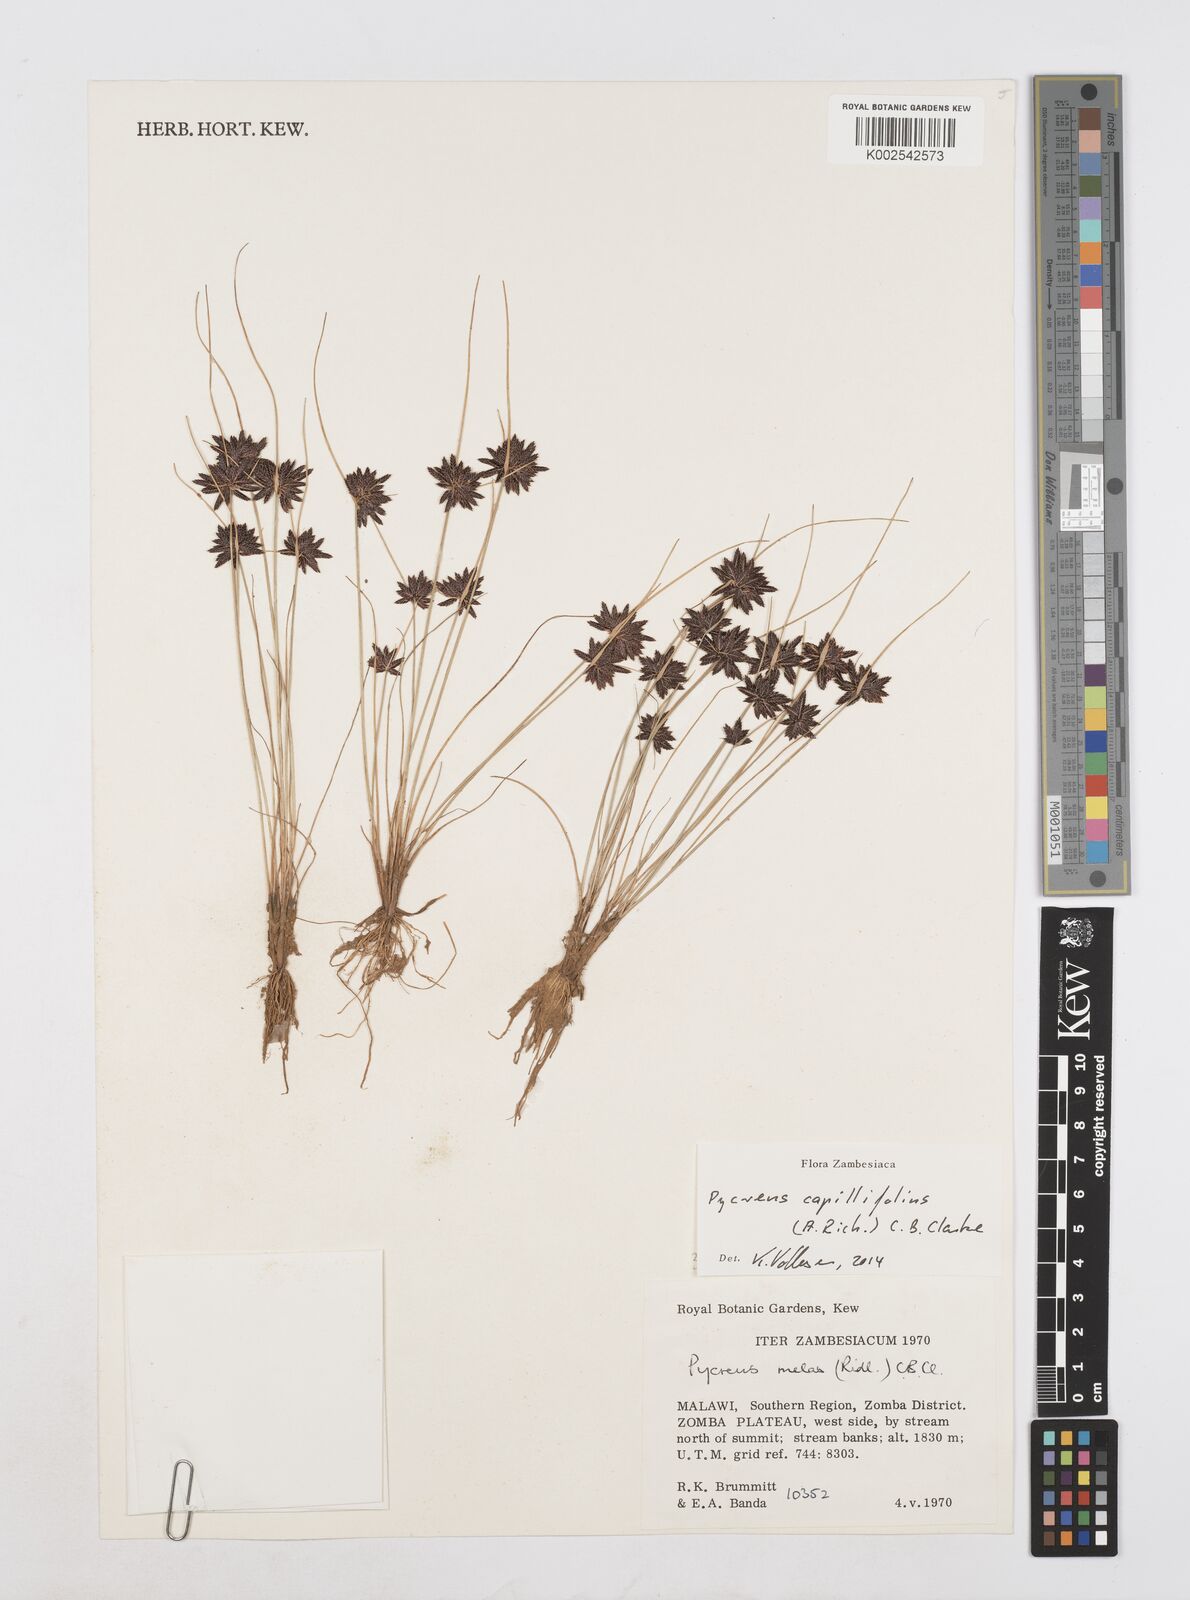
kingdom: Plantae
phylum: Tracheophyta
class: Liliopsida
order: Poales
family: Cyperaceae
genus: Cyperus
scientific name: Cyperus capillifolius
